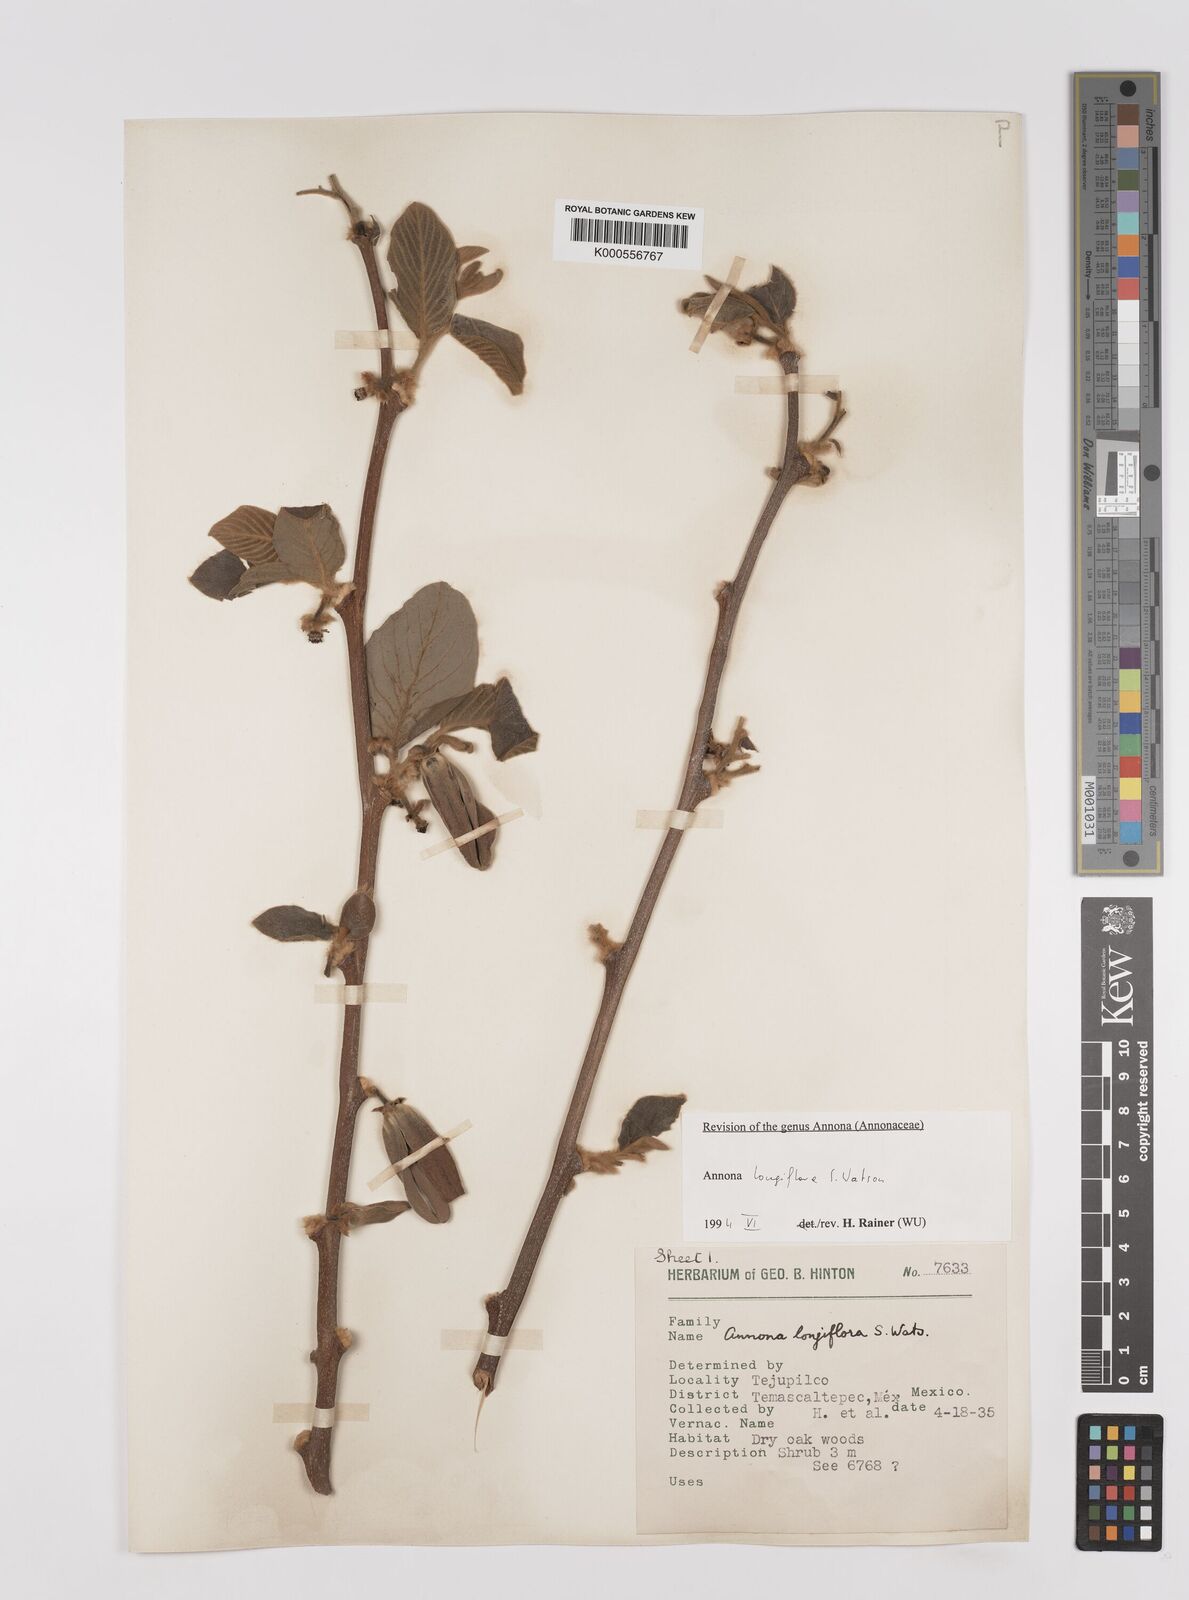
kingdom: Plantae
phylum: Tracheophyta
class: Magnoliopsida
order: Magnoliales
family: Annonaceae
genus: Annona
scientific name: Annona longiflora
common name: Wild cherimoya of jalisco
